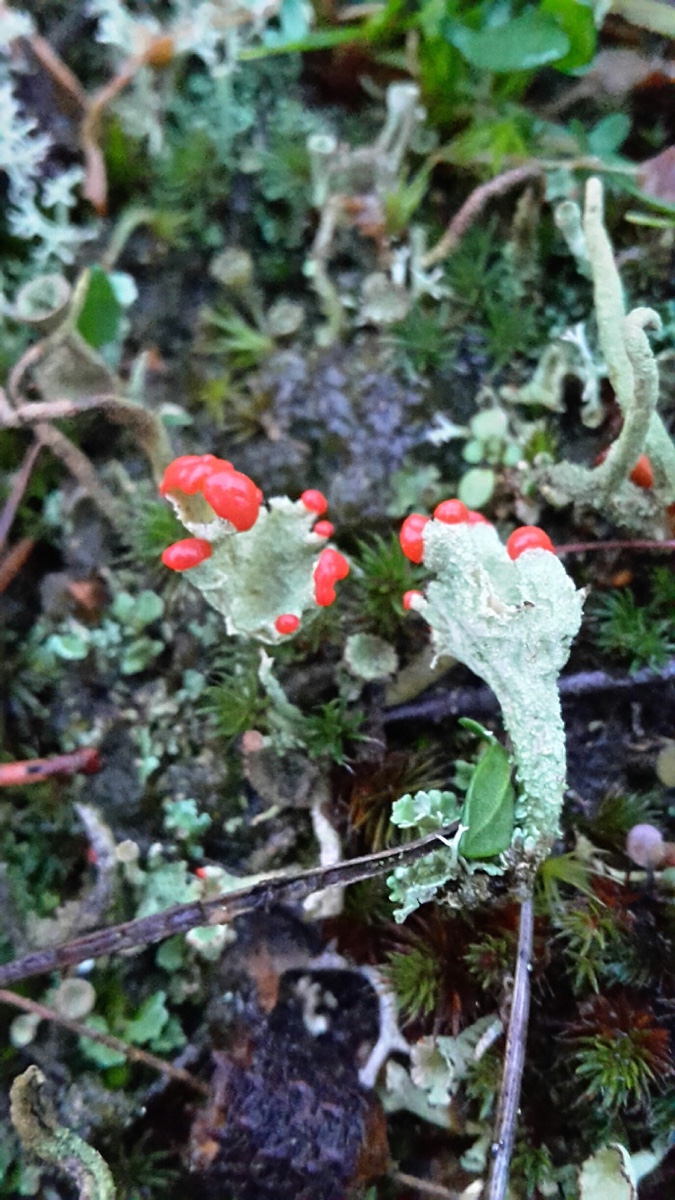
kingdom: Fungi
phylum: Ascomycota
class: Lecanoromycetes
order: Lecanorales
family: Cladoniaceae
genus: Cladonia
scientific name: Cladonia diversa
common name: rød bægerlav
